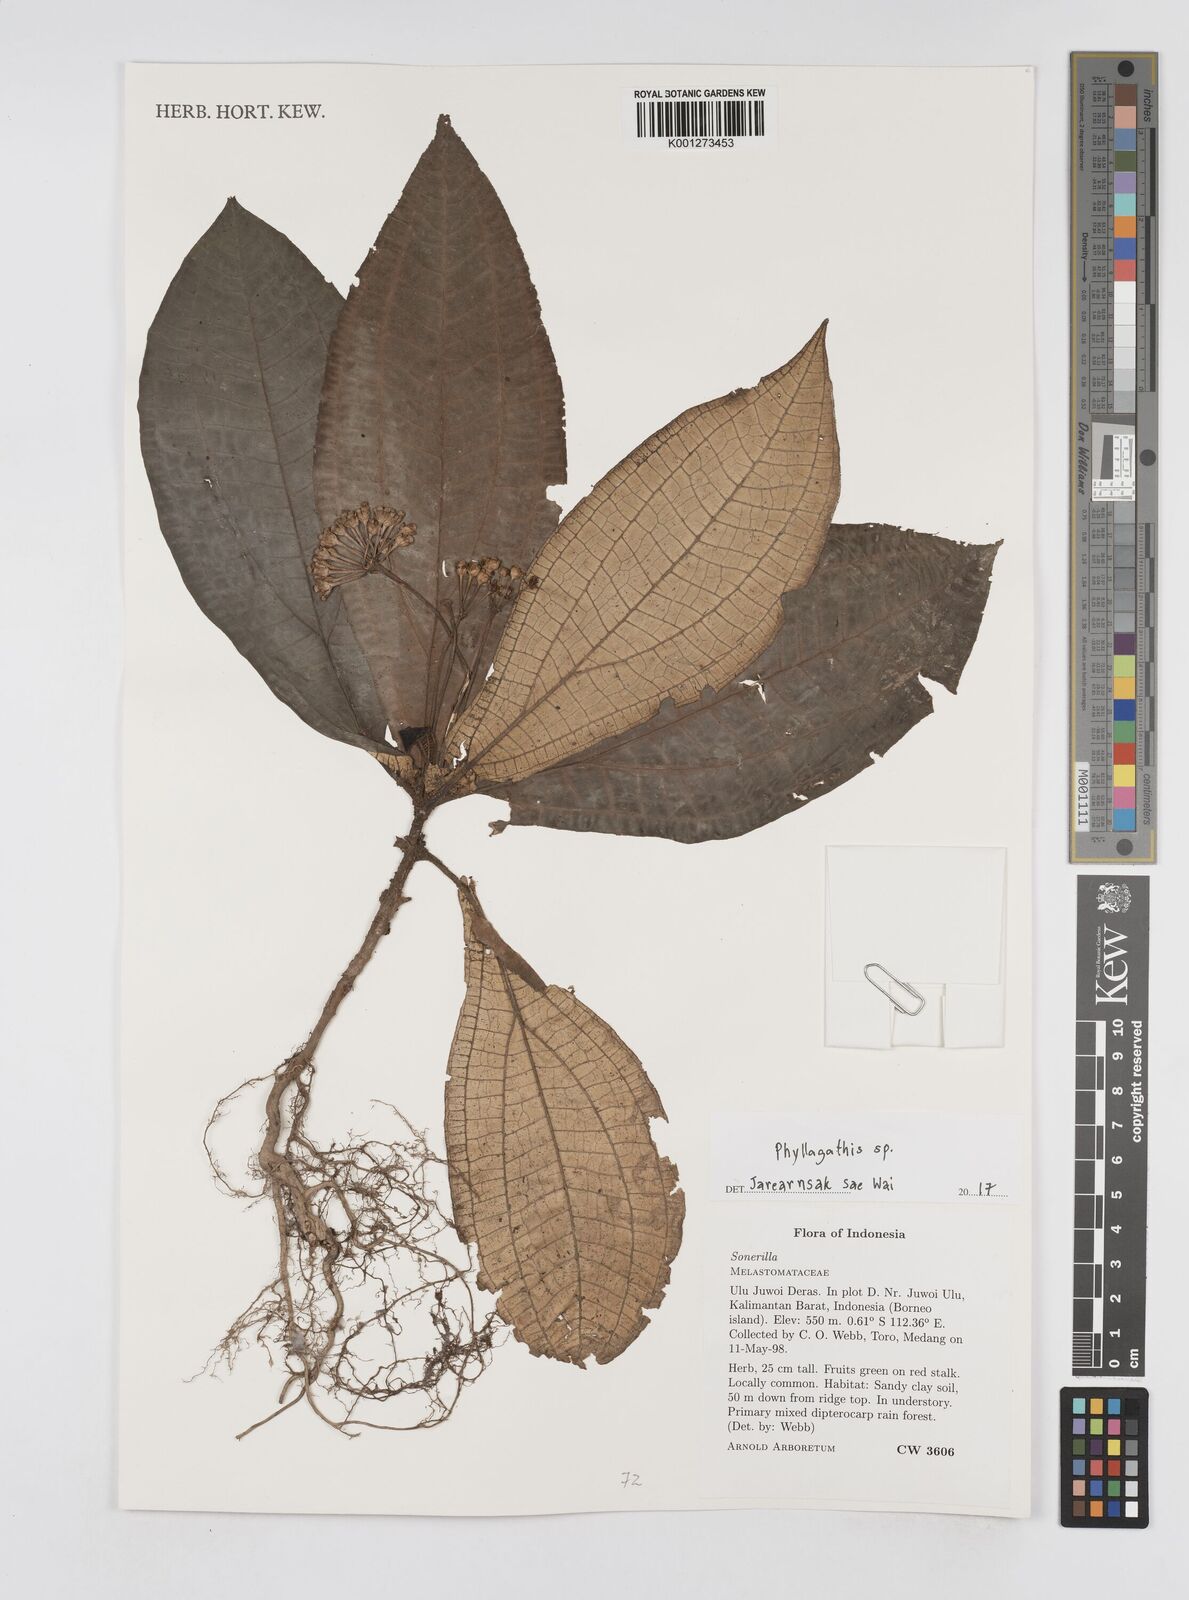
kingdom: Plantae
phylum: Tracheophyta
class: Magnoliopsida
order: Myrtales
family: Melastomataceae
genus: Phyllagathis
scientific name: Phyllagathis
